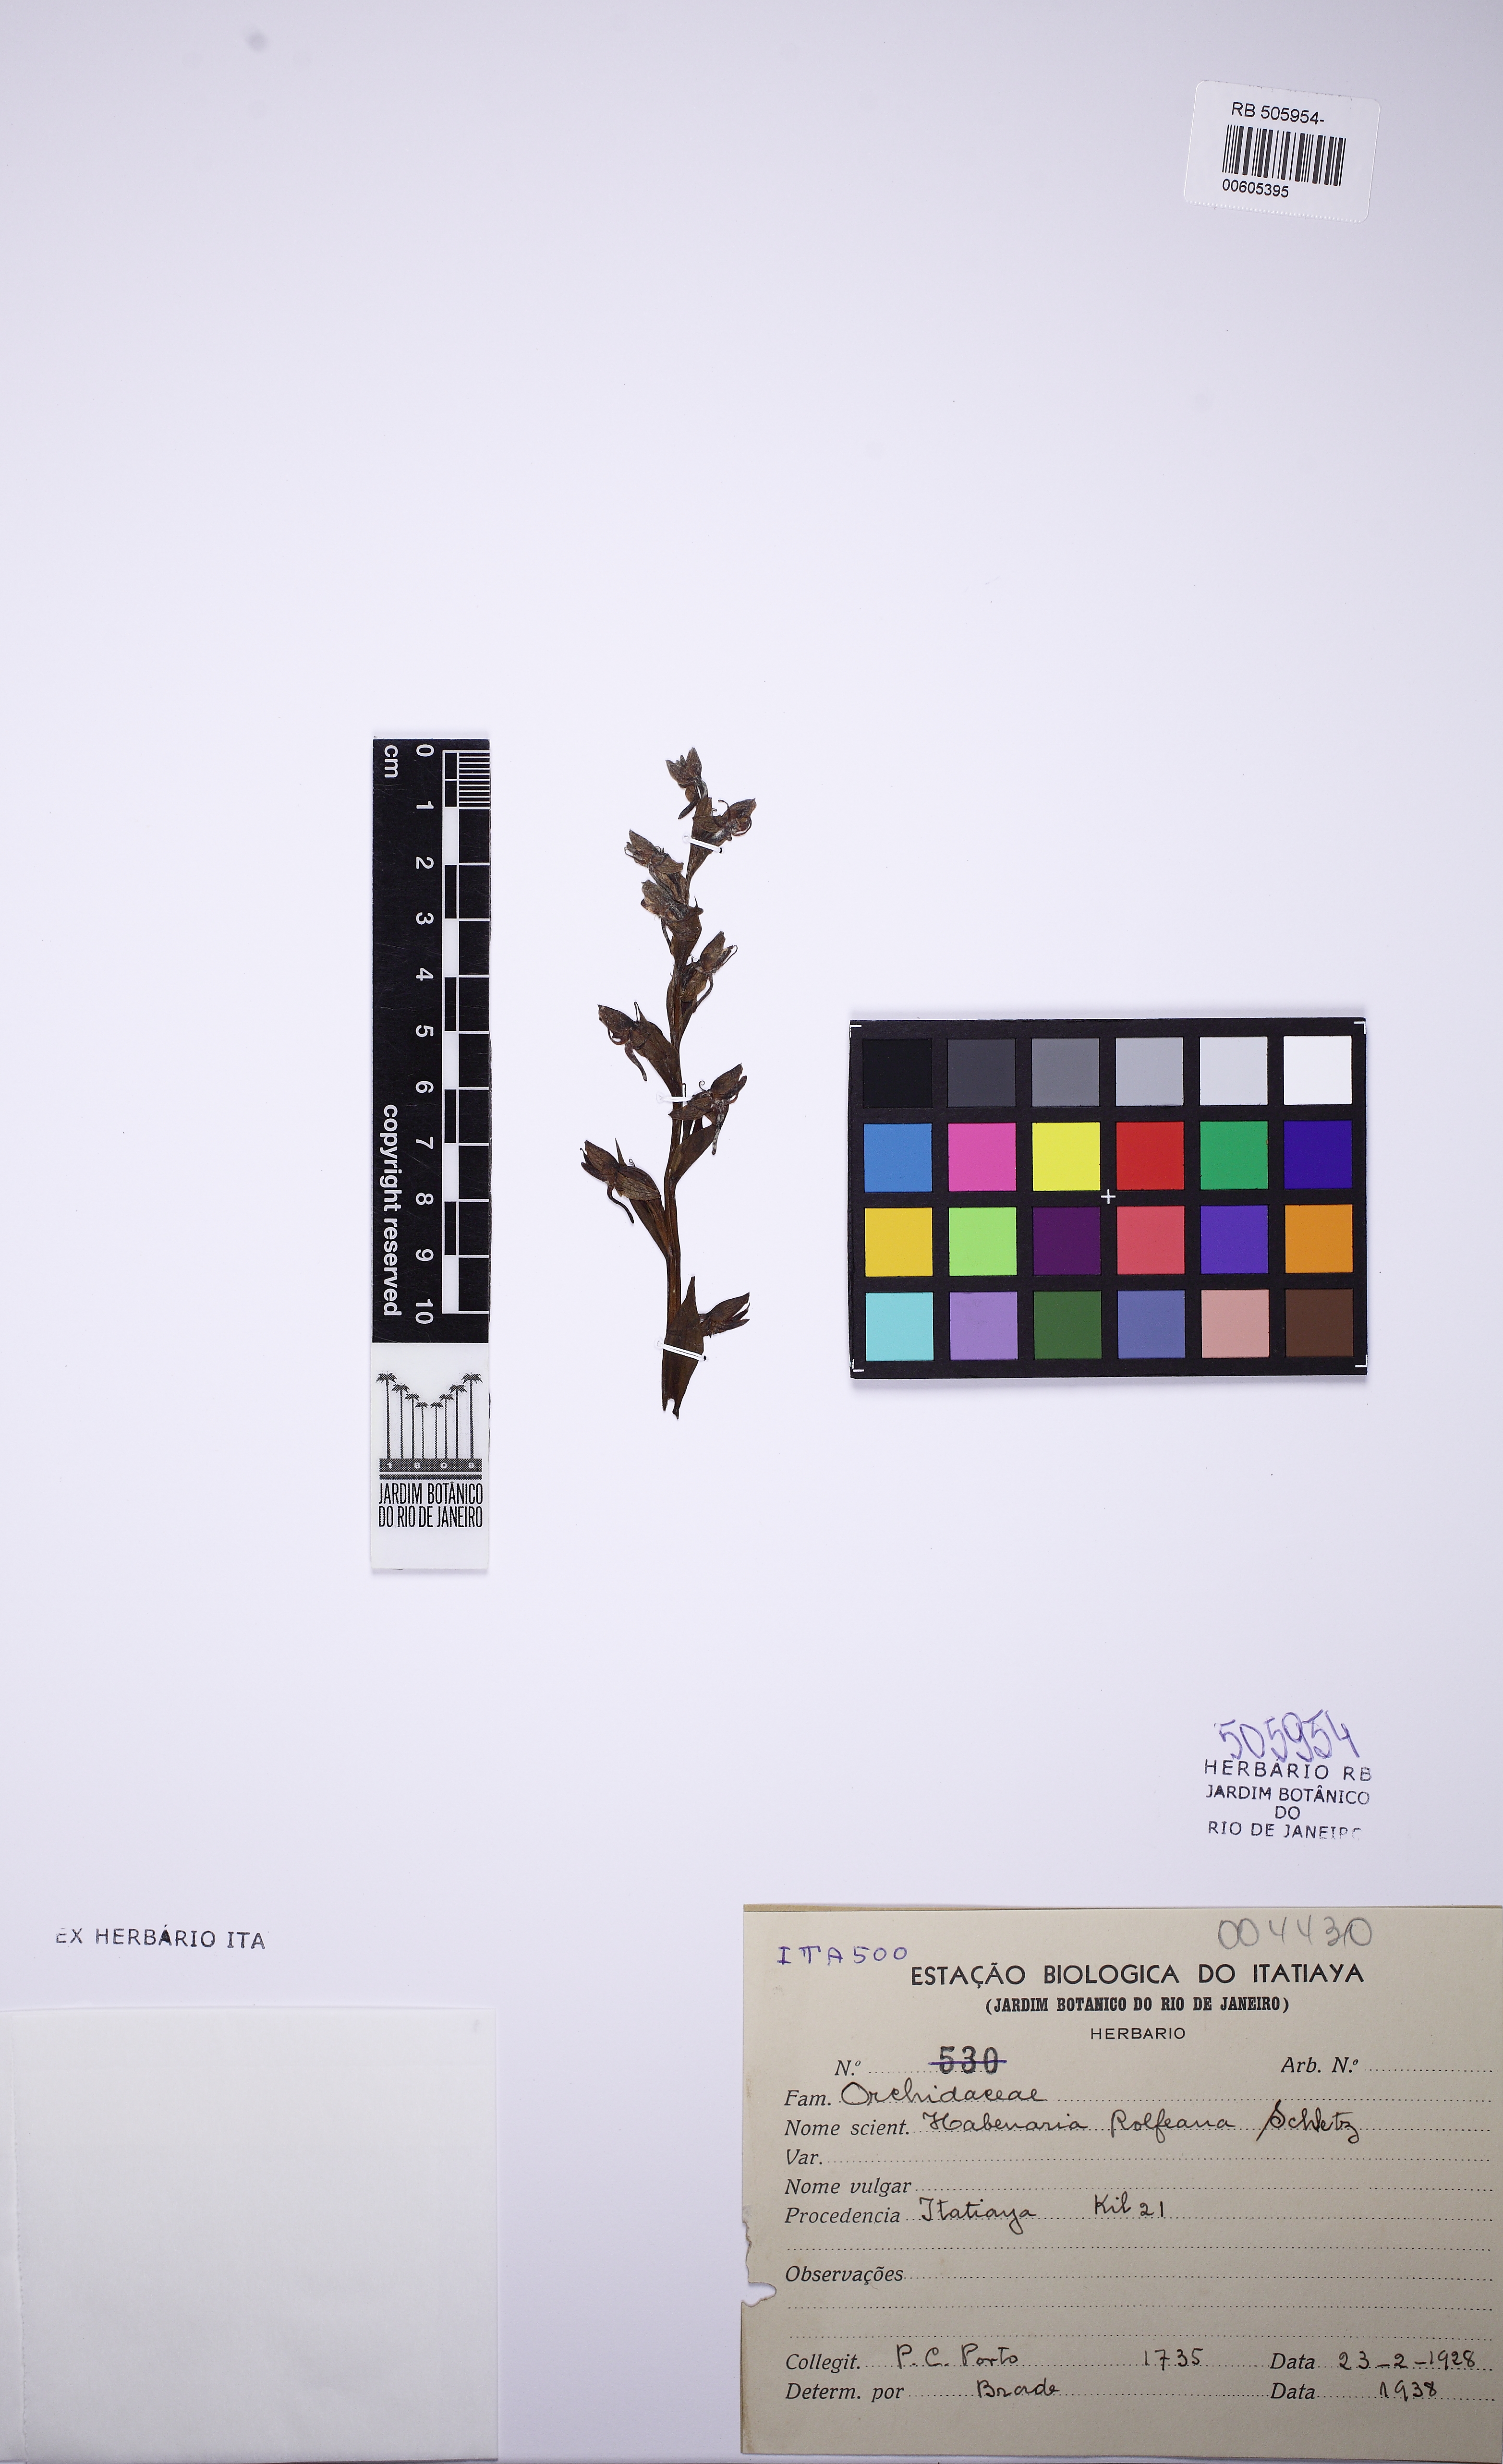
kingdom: Plantae
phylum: Tracheophyta
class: Liliopsida
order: Asparagales
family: Orchidaceae
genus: Habenaria
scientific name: Habenaria rolfeana
